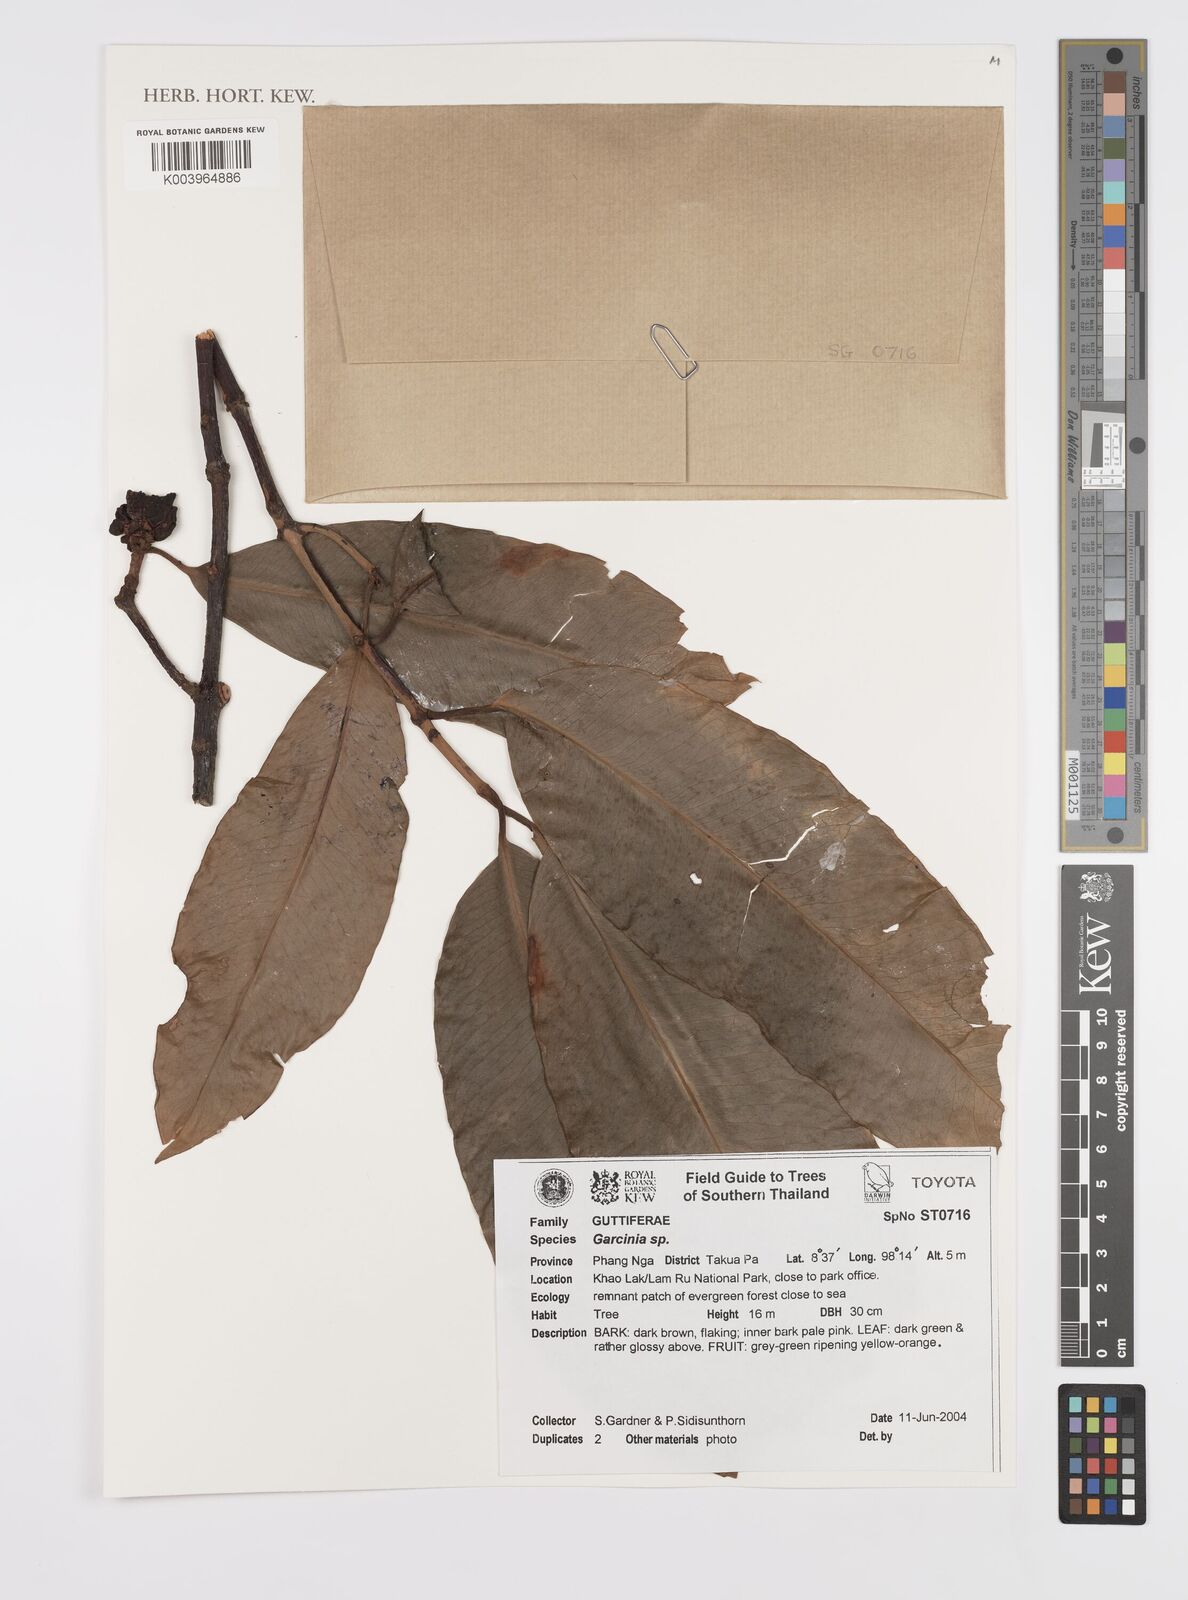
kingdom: Plantae
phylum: Tracheophyta
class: Magnoliopsida
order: Malpighiales
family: Clusiaceae
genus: Garcinia
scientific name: Garcinia
